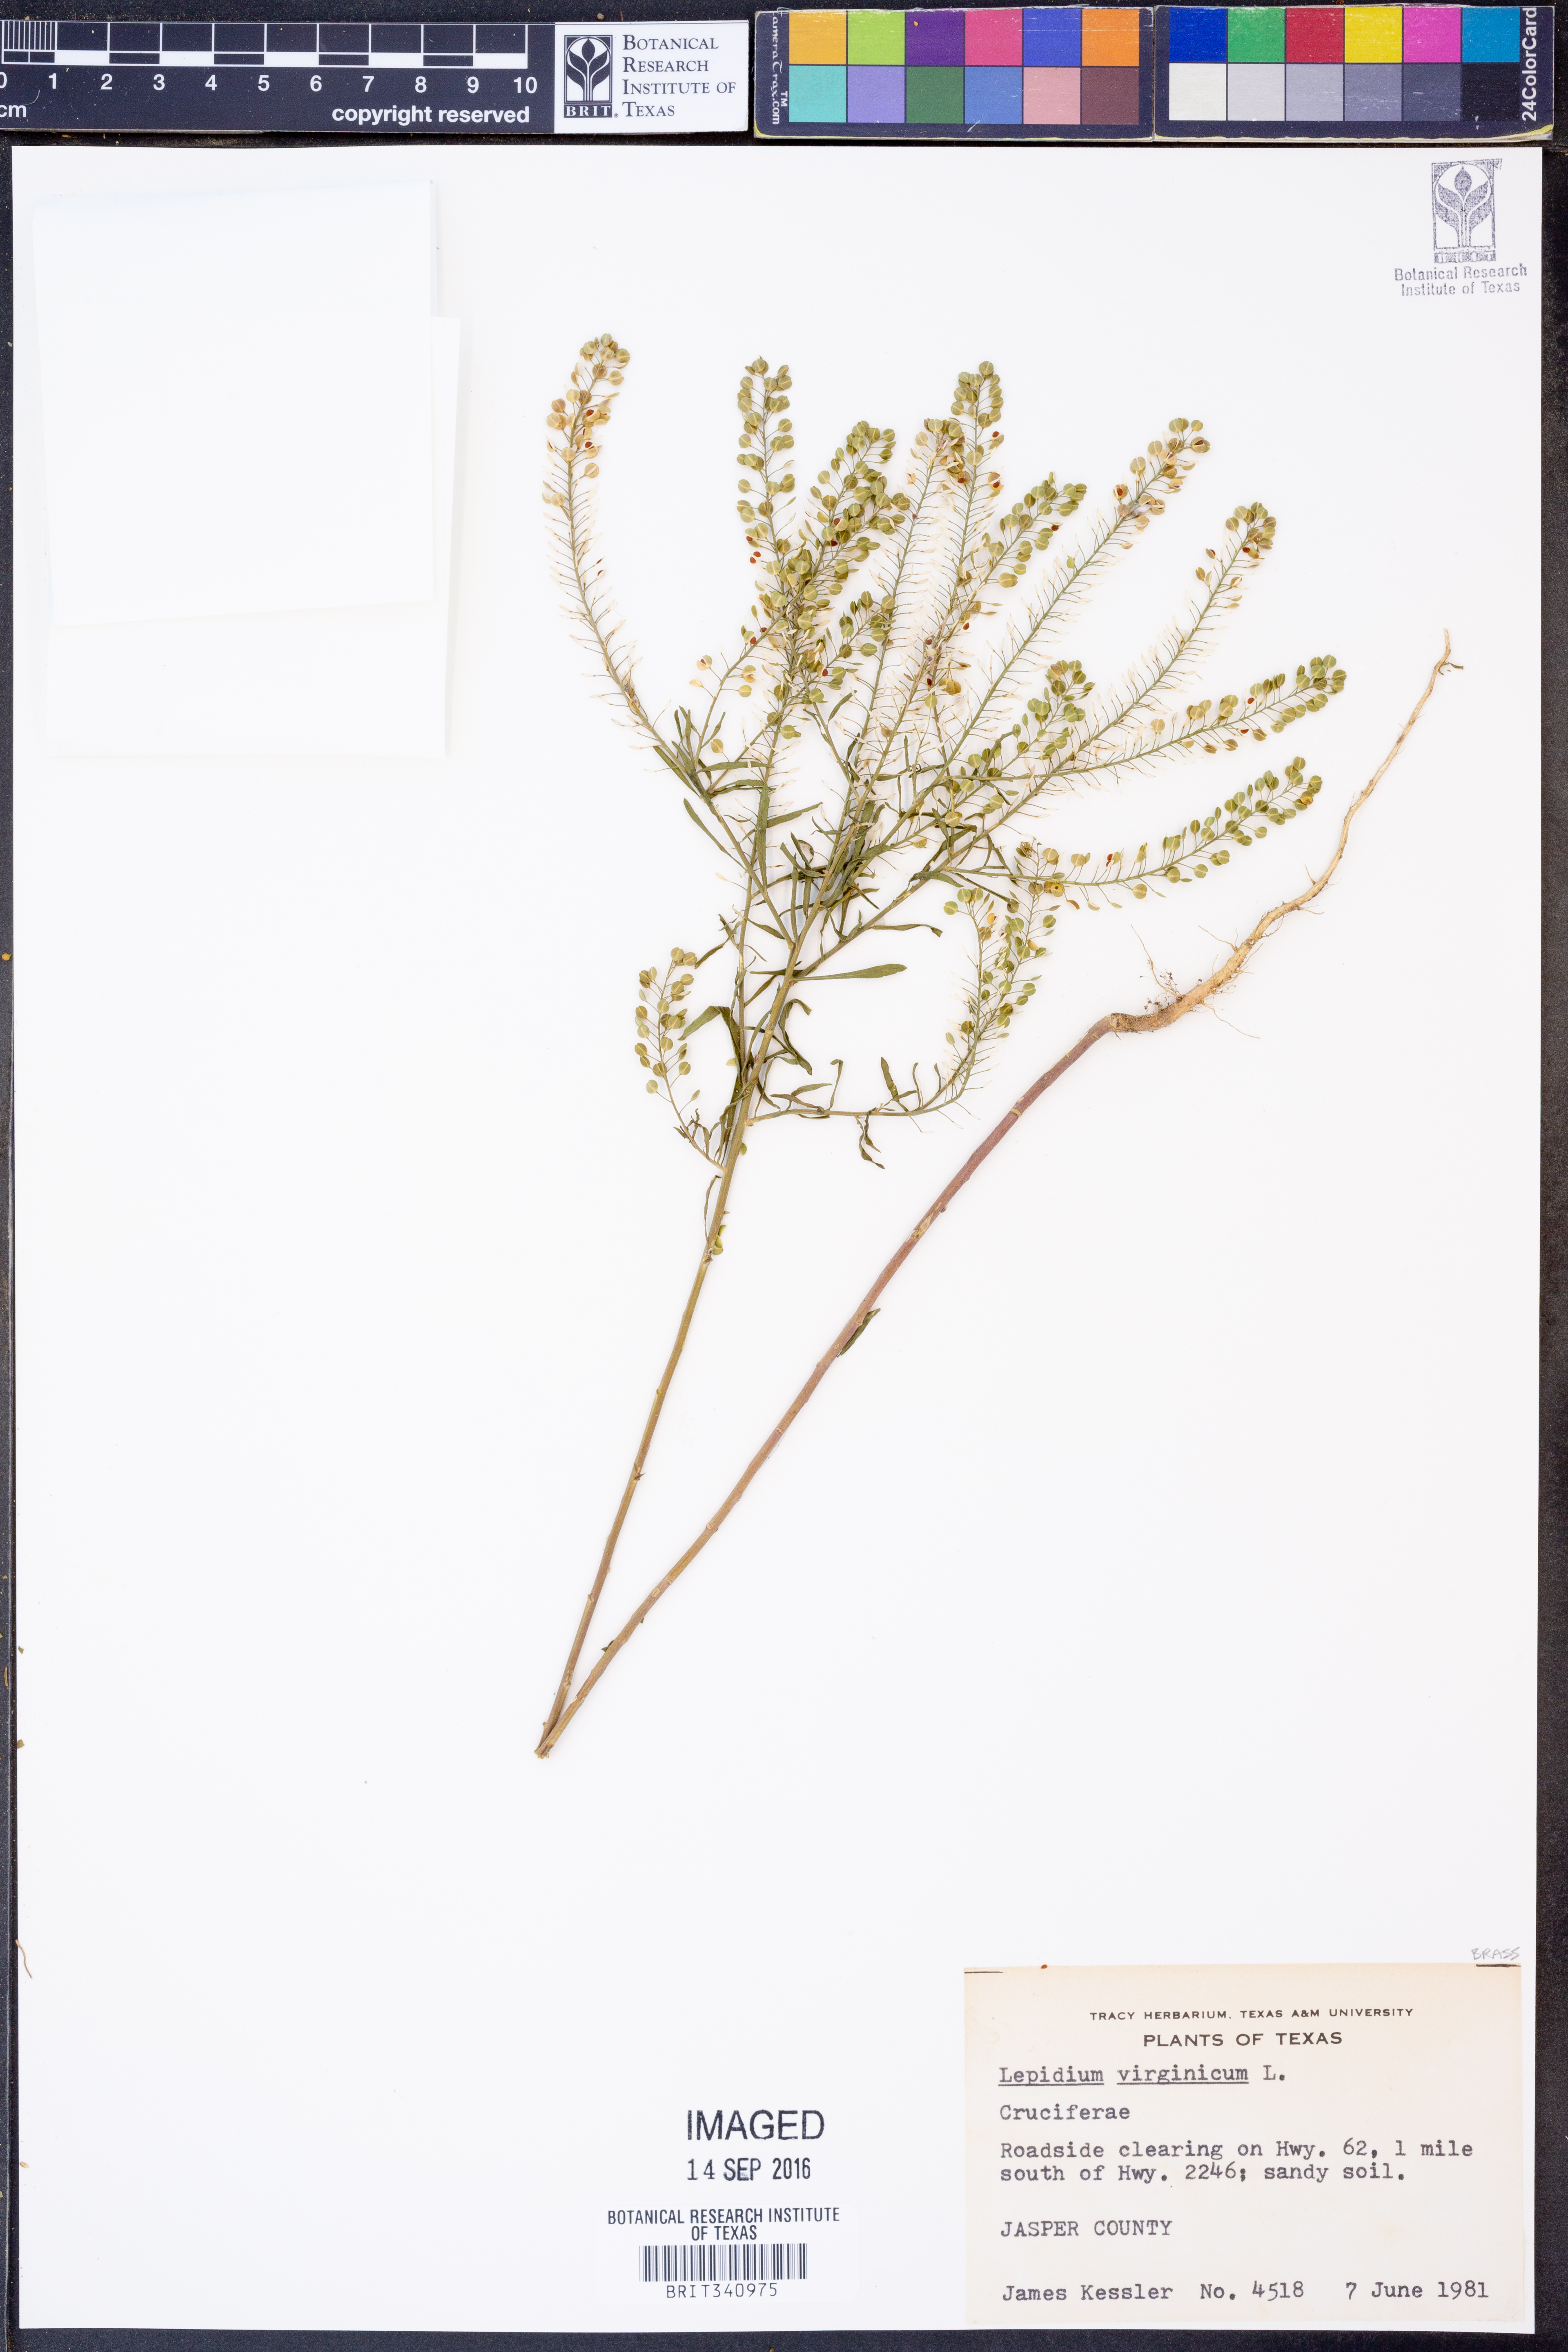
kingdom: Plantae
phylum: Tracheophyta
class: Magnoliopsida
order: Brassicales
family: Brassicaceae
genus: Lepidium
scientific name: Lepidium virginicum
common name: Least pepperwort
